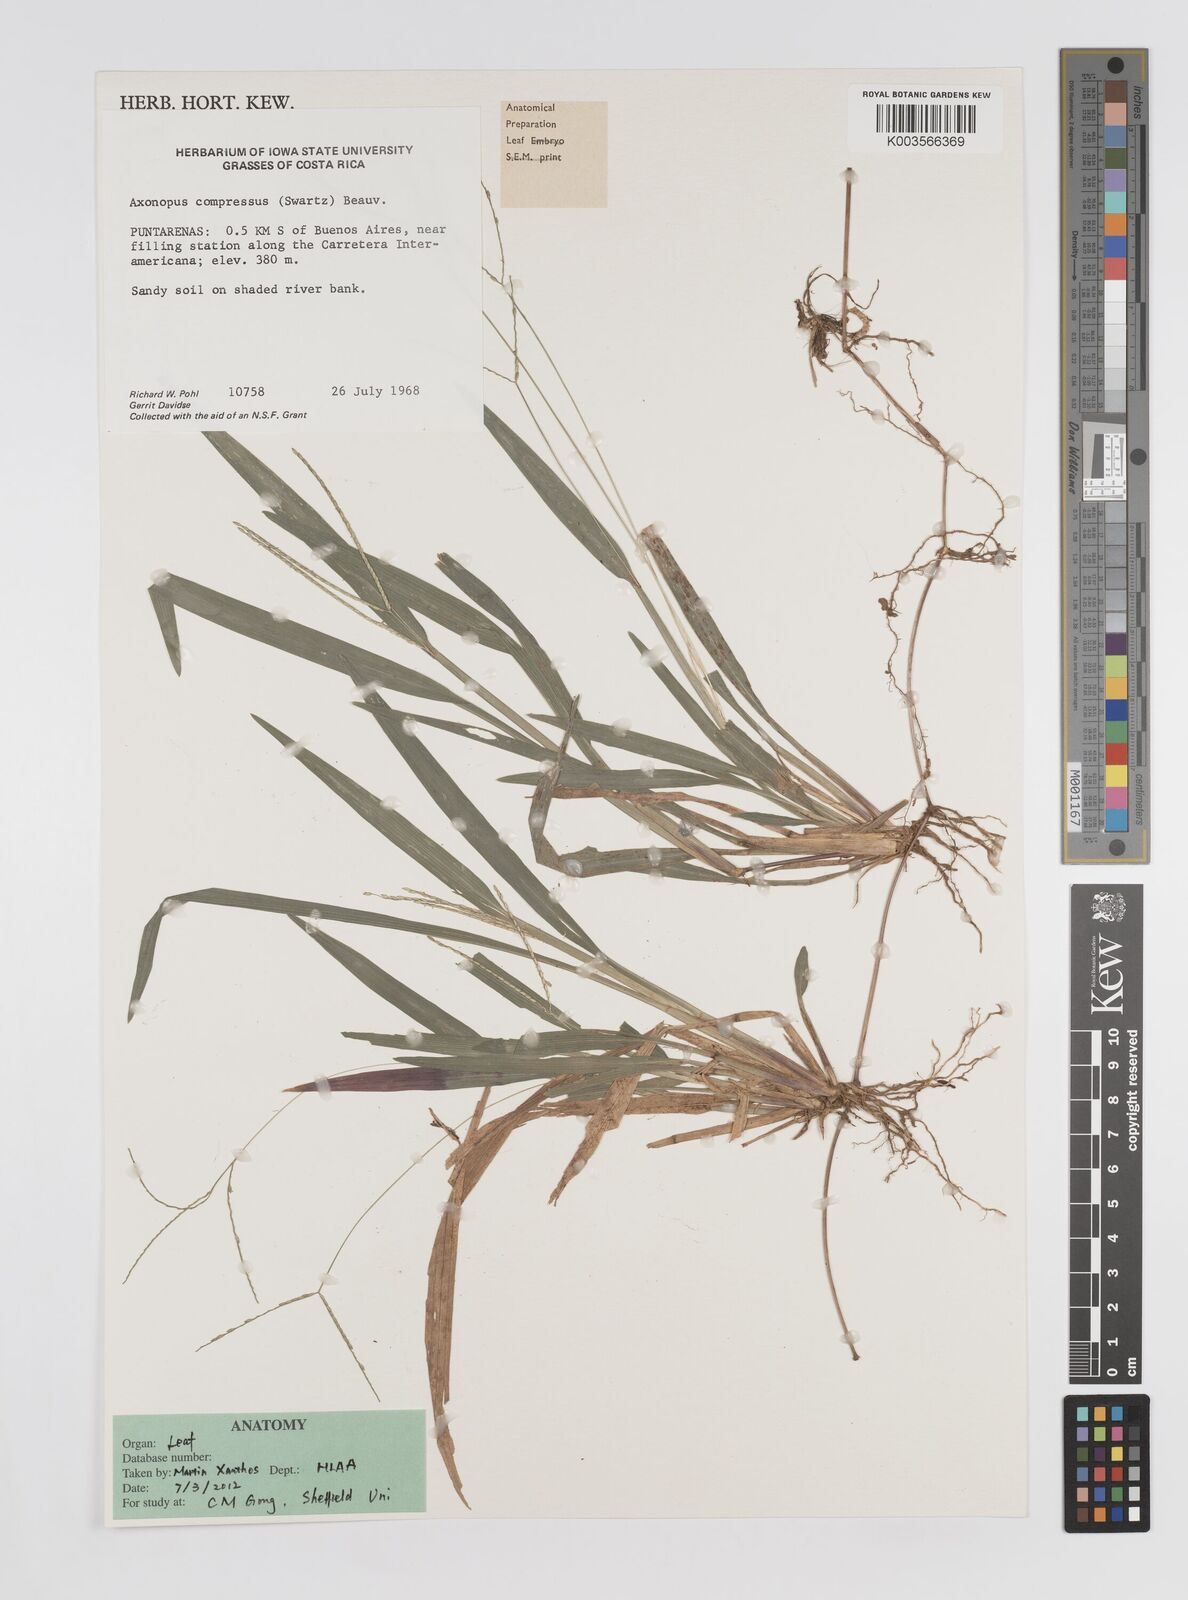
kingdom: Plantae
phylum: Tracheophyta
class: Liliopsida
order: Poales
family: Poaceae
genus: Axonopus
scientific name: Axonopus compressus
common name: American carpet grass
